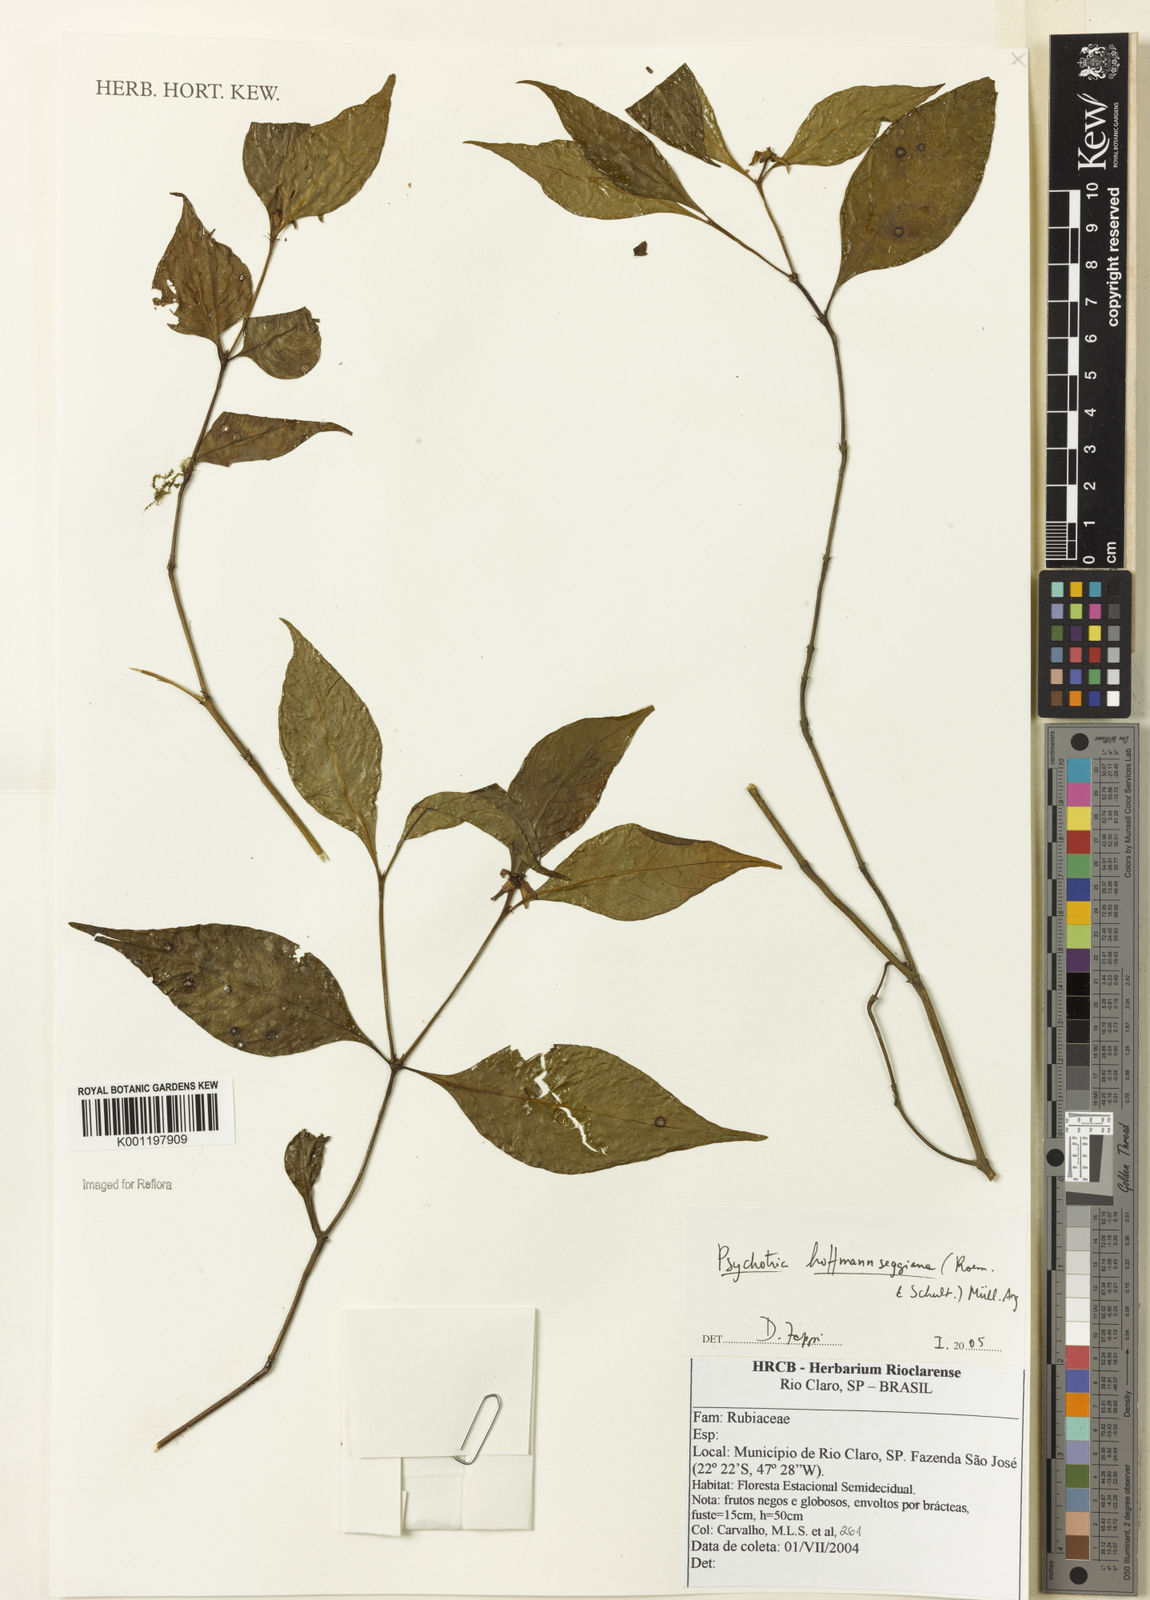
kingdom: Plantae
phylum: Tracheophyta
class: Magnoliopsida
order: Gentianales
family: Rubiaceae
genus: Psychotria
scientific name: Psychotria
